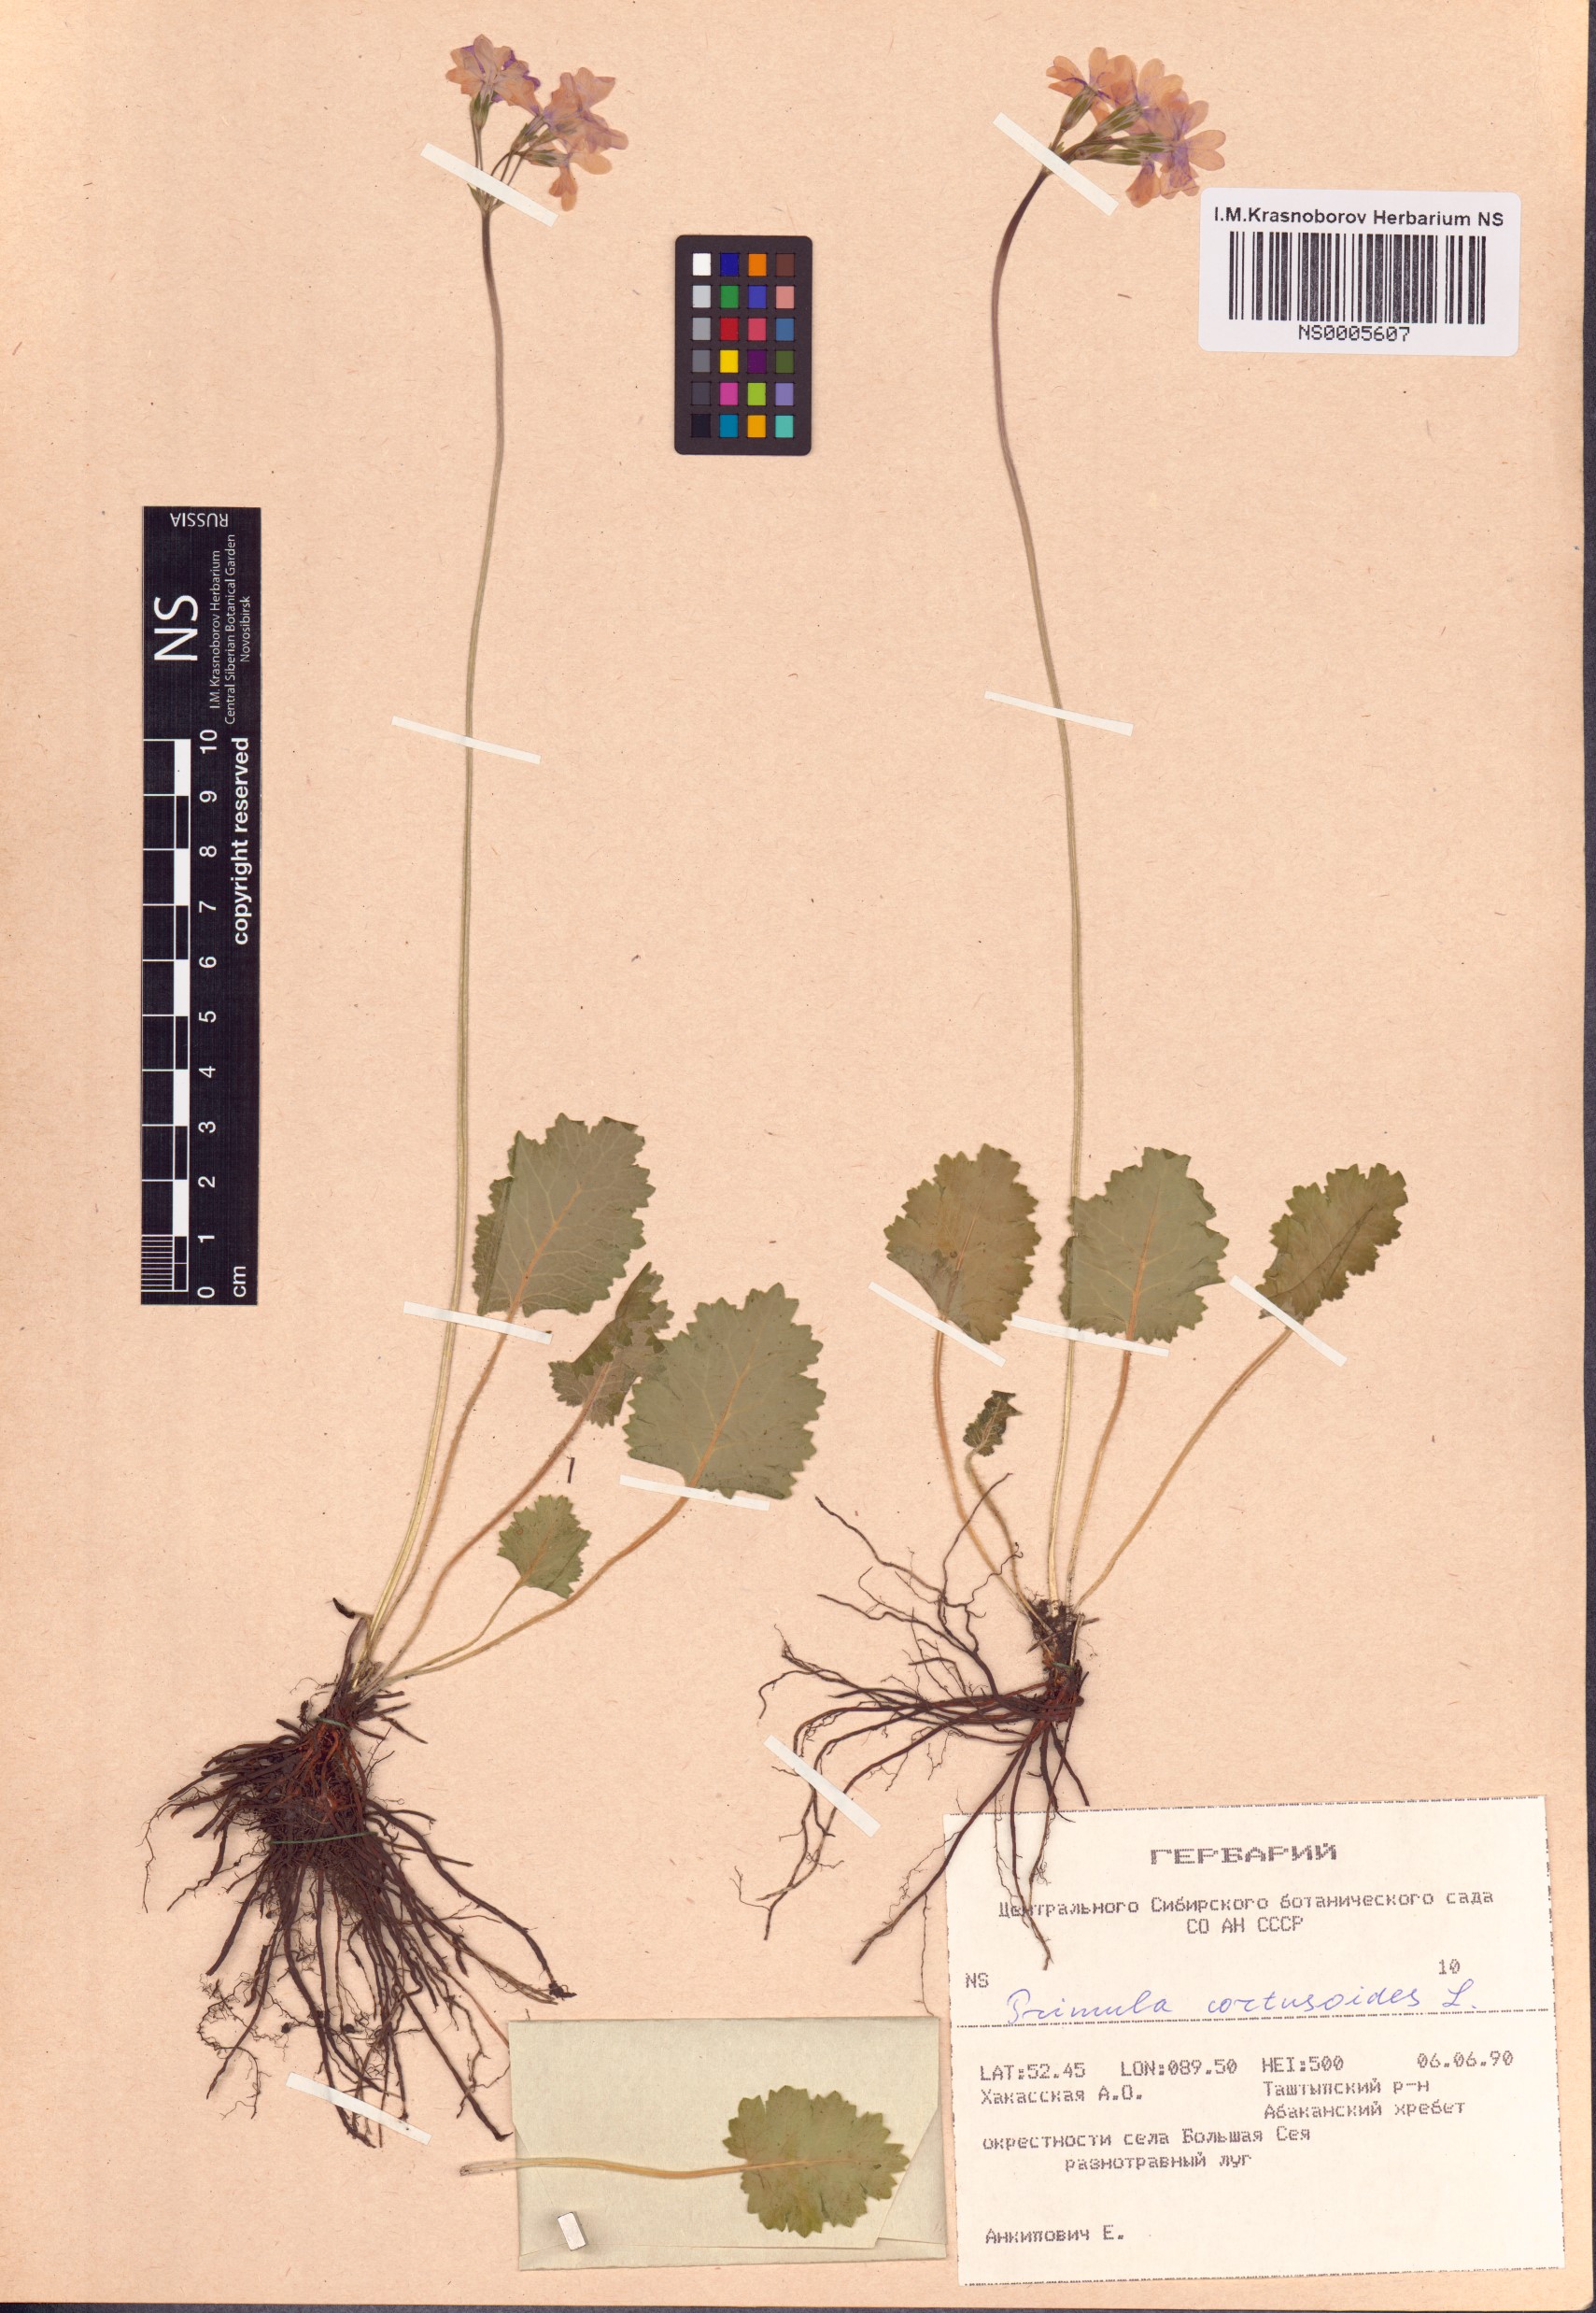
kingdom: Plantae
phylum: Tracheophyta
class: Magnoliopsida
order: Ericales
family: Primulaceae
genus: Primula
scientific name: Primula cortusoides
